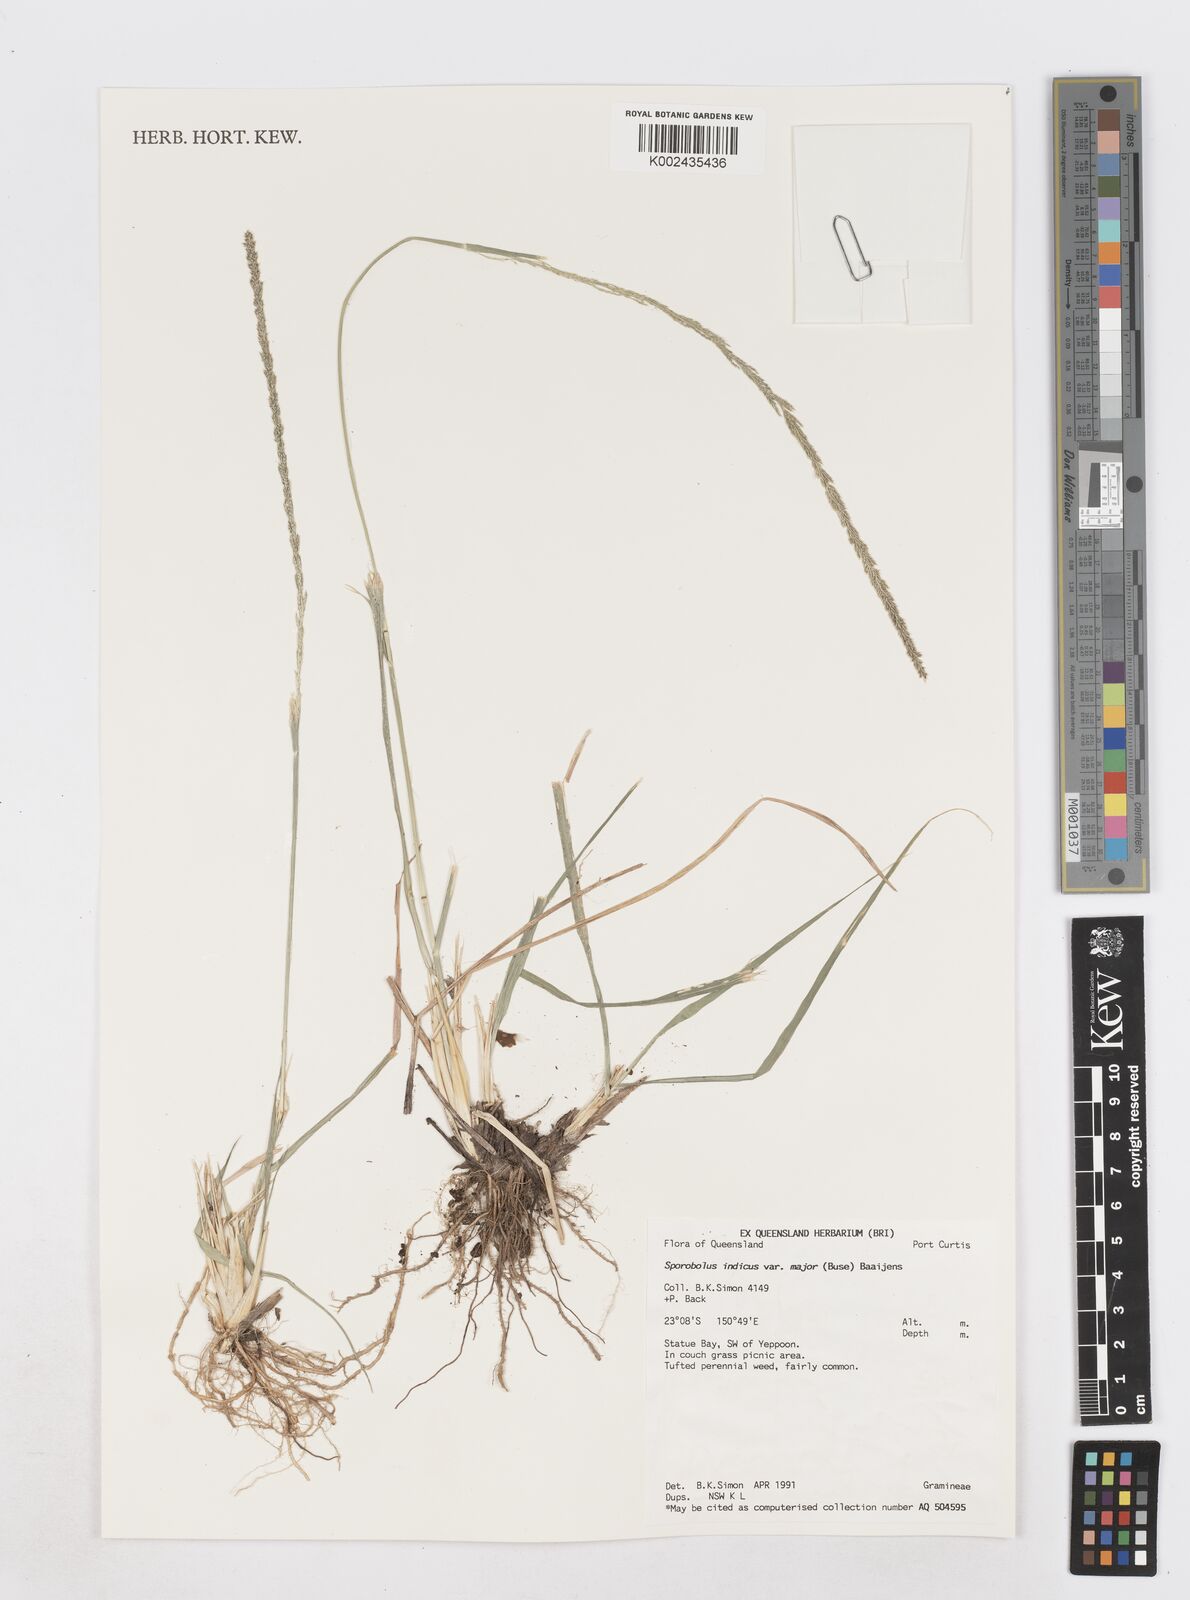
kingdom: Plantae
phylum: Tracheophyta
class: Liliopsida
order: Poales
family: Poaceae
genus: Sporobolus
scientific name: Sporobolus fertilis
